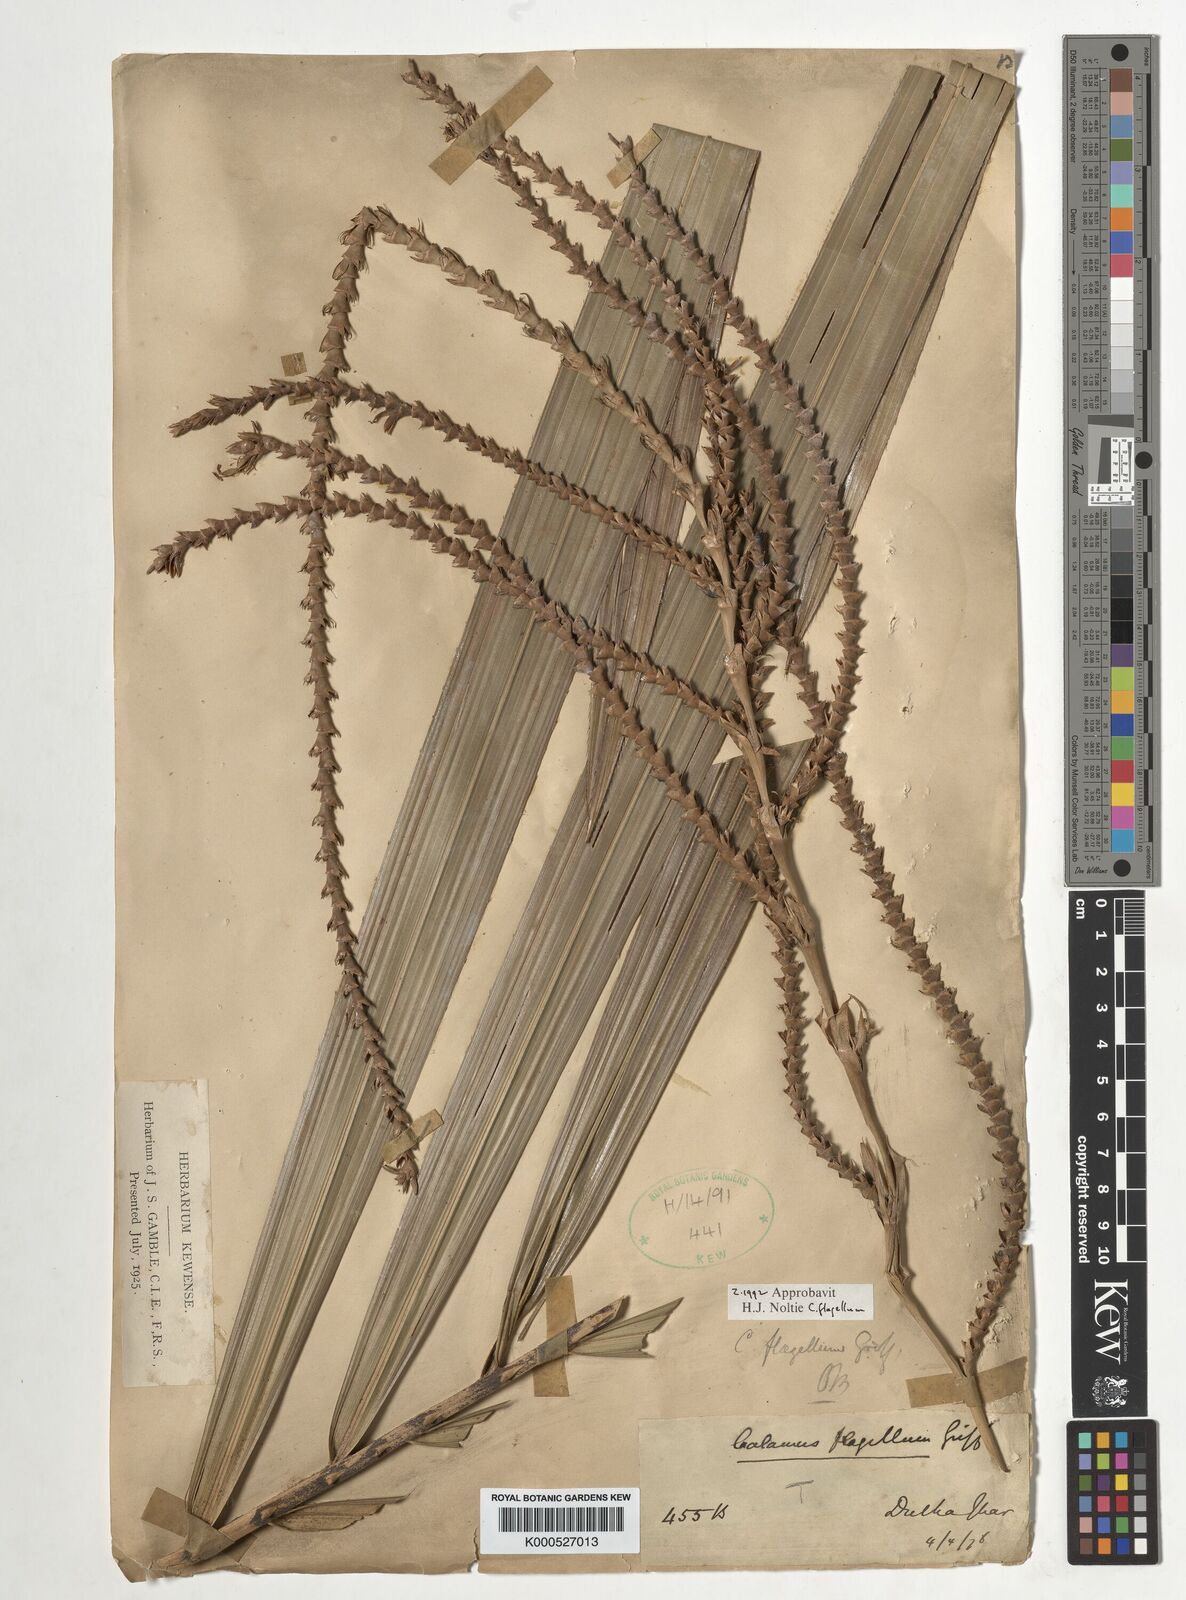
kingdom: Plantae
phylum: Tracheophyta
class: Liliopsida
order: Arecales
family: Arecaceae
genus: Calamus
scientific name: Calamus flagellum
